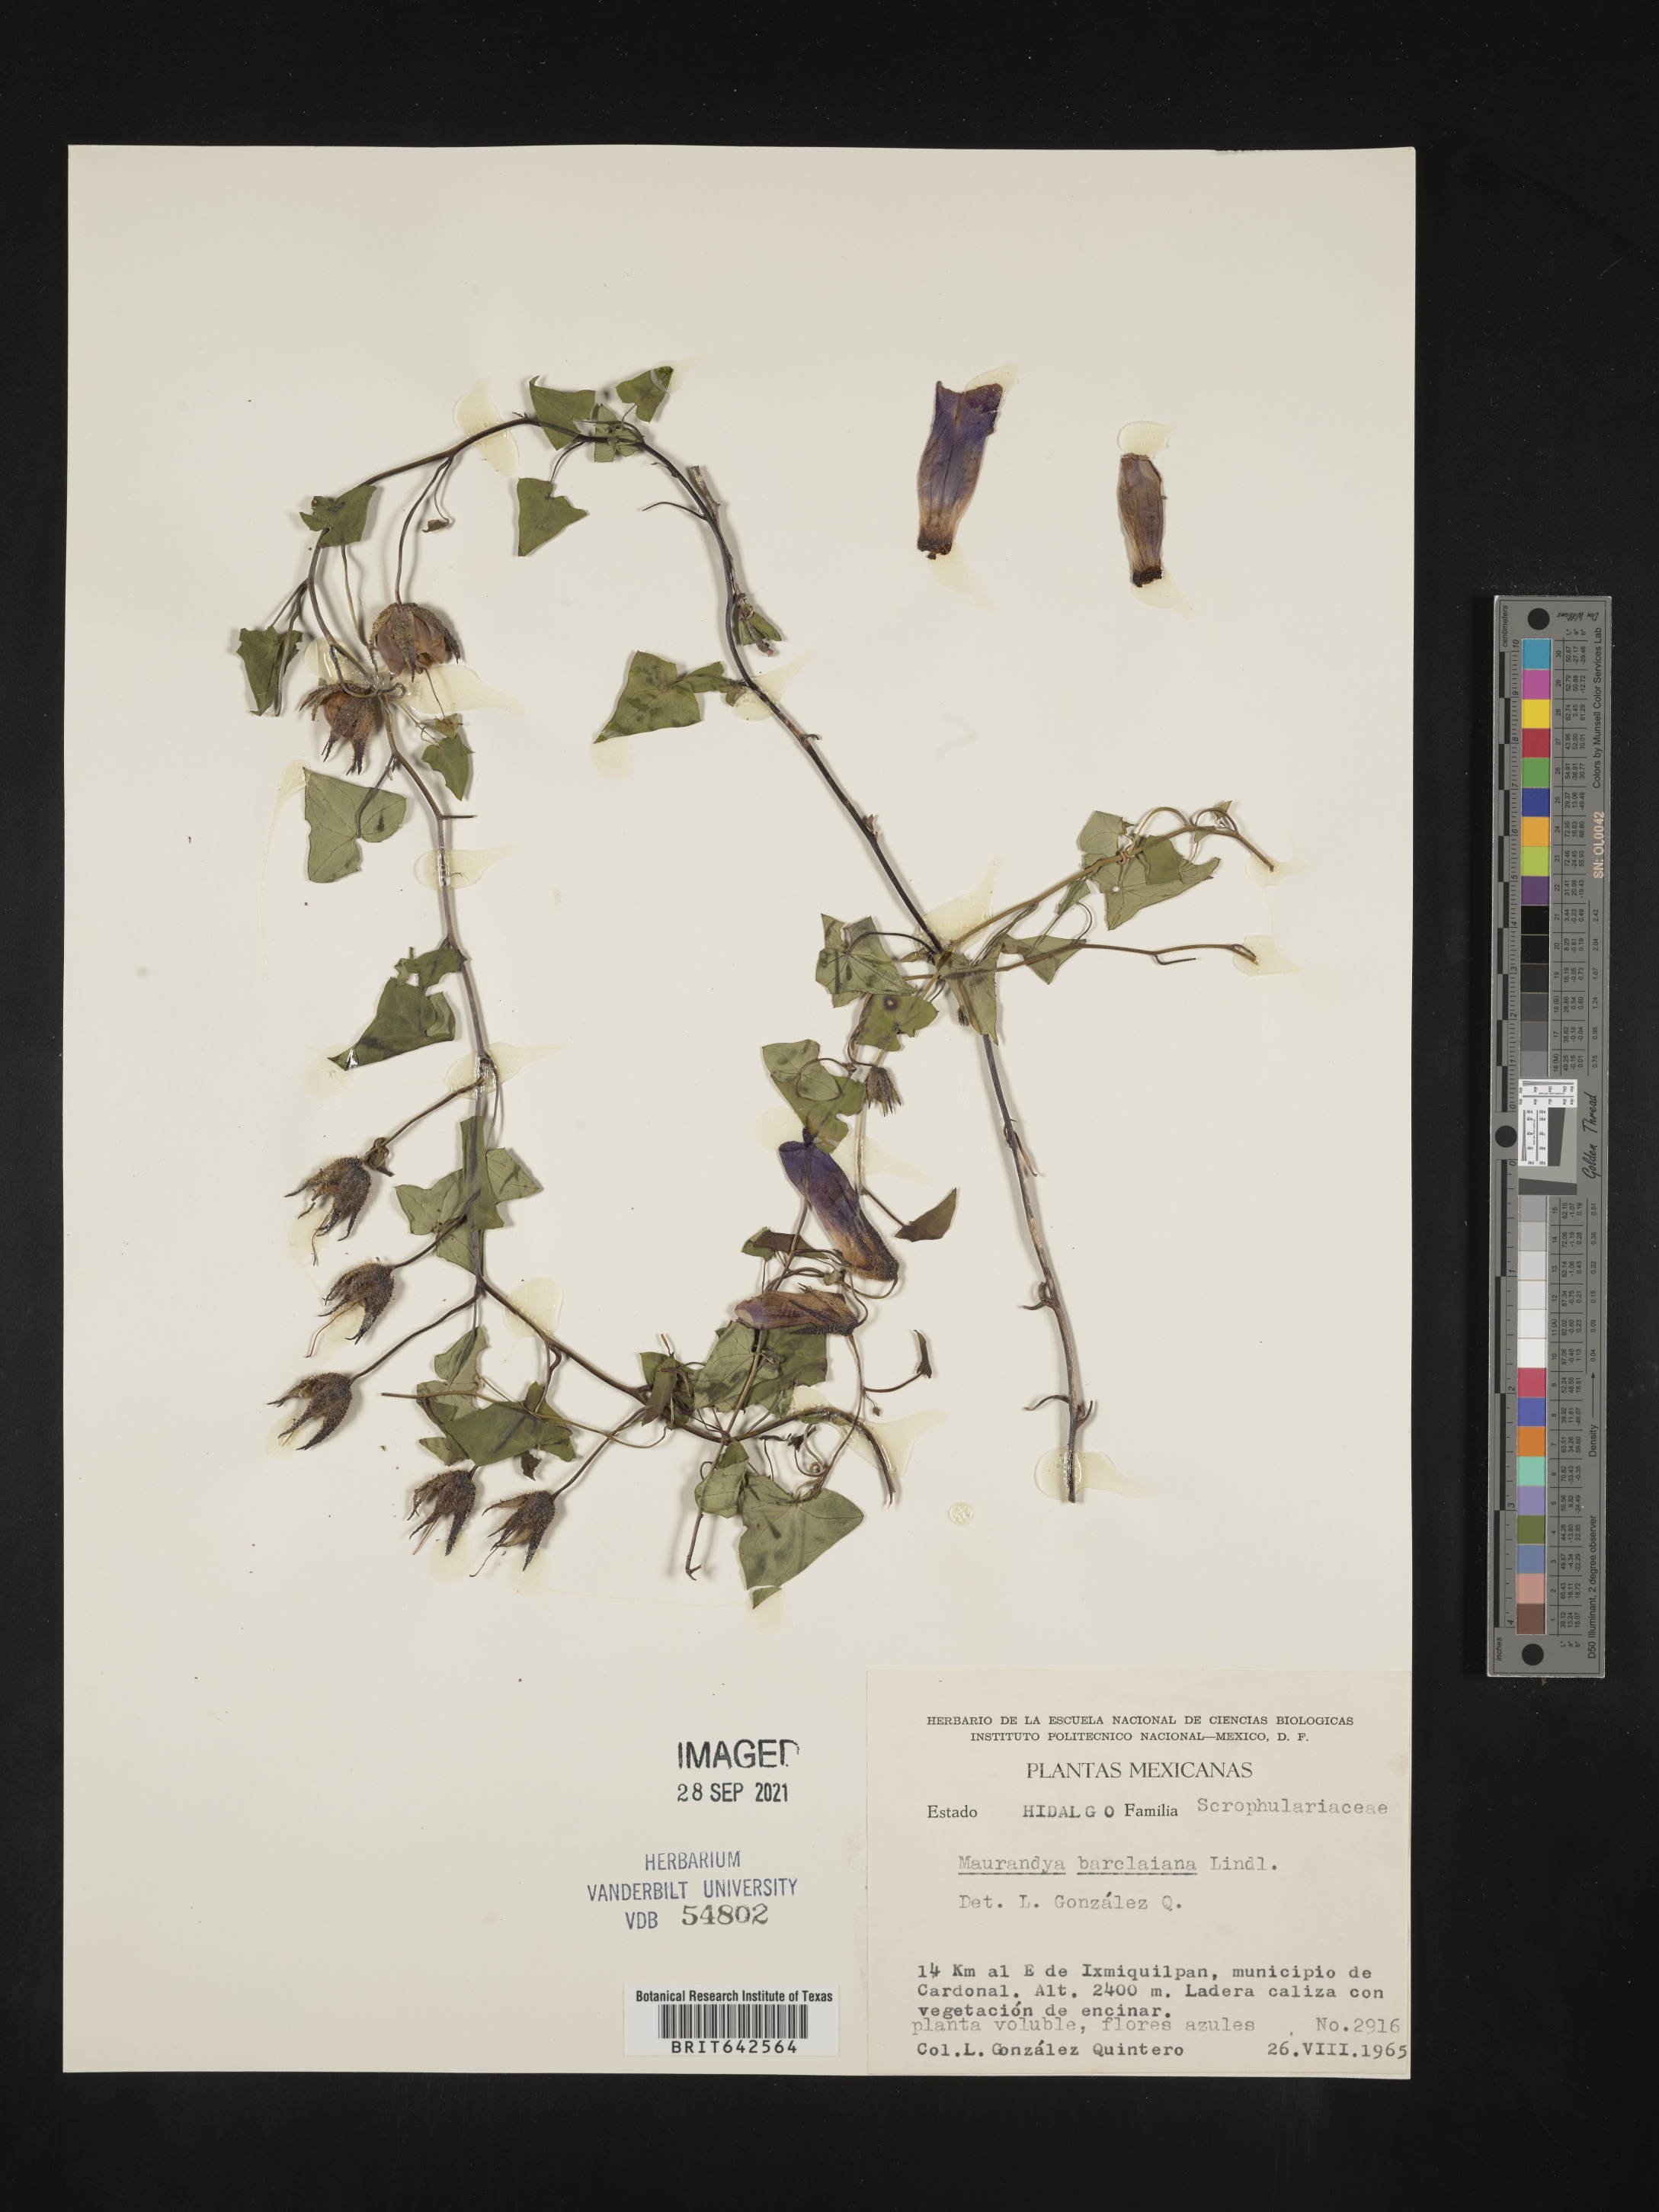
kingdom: Plantae
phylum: Tracheophyta
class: Magnoliopsida
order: Lamiales
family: Plantaginaceae
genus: Maurandya
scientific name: Maurandya
